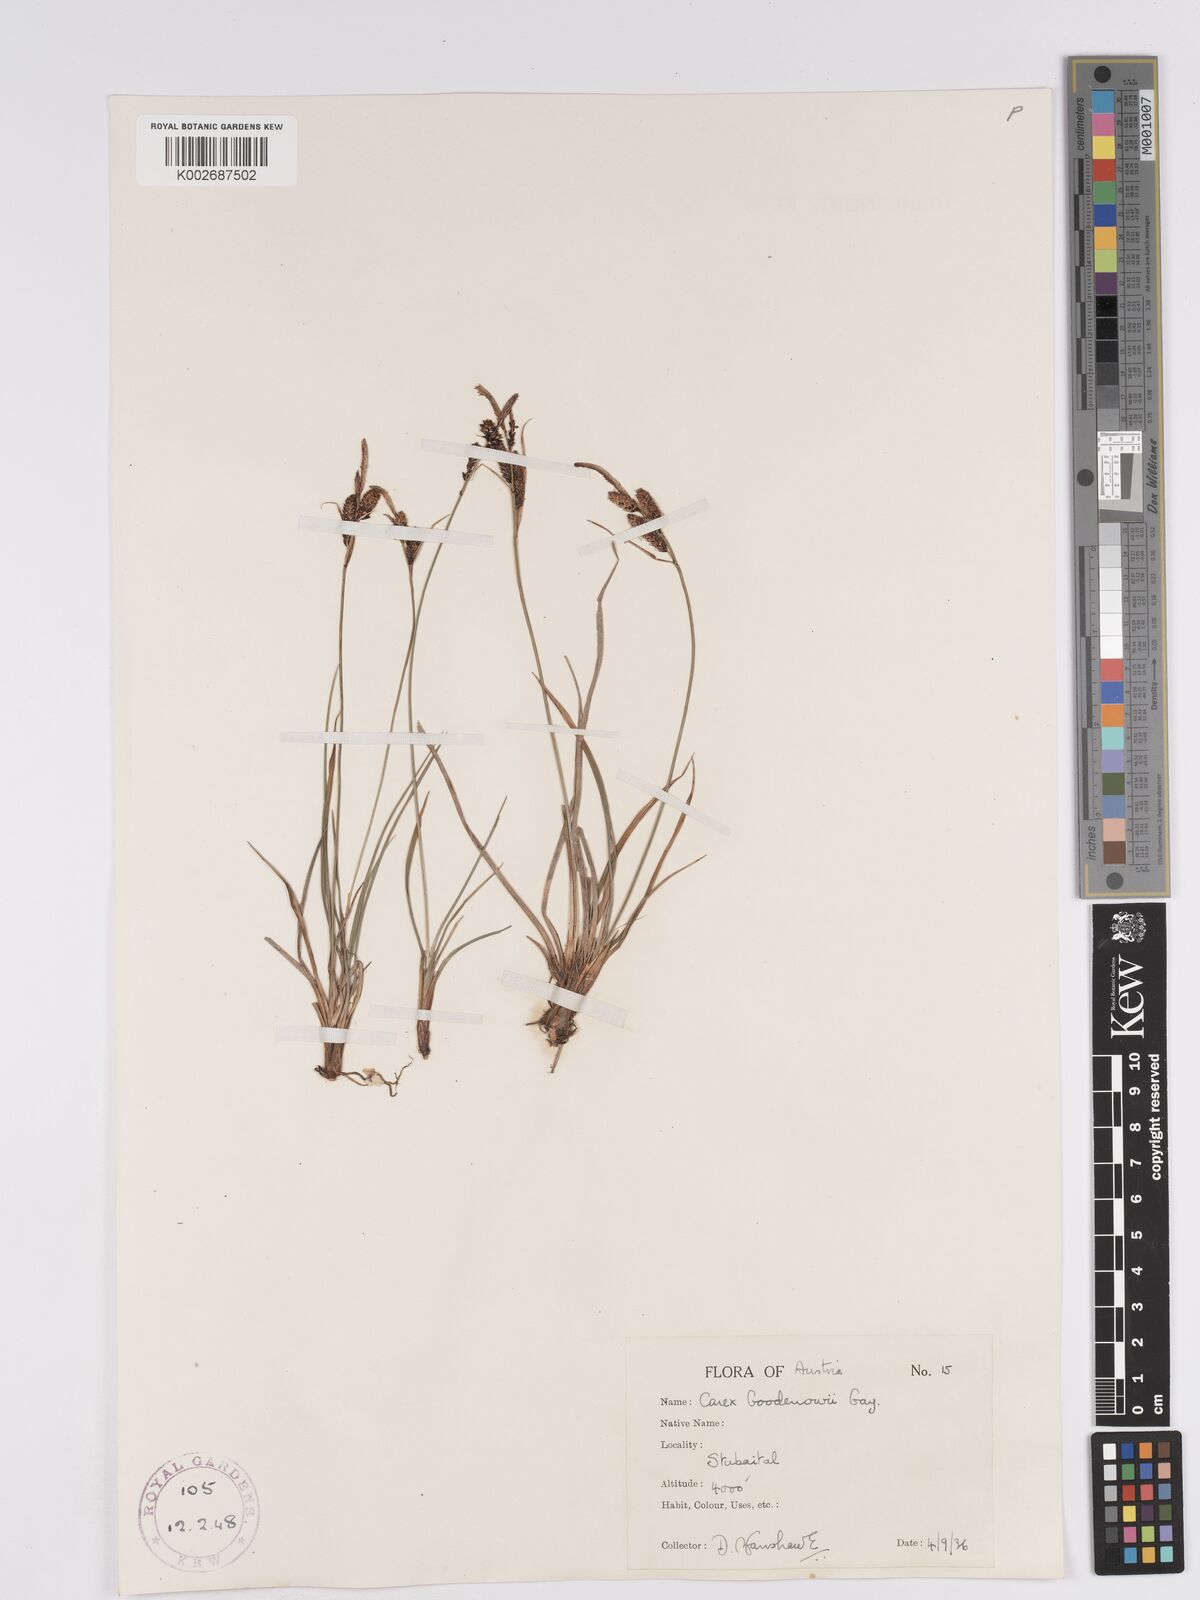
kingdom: Plantae
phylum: Tracheophyta
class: Liliopsida
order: Poales
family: Cyperaceae
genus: Carex
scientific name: Carex nigra
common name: Common sedge
